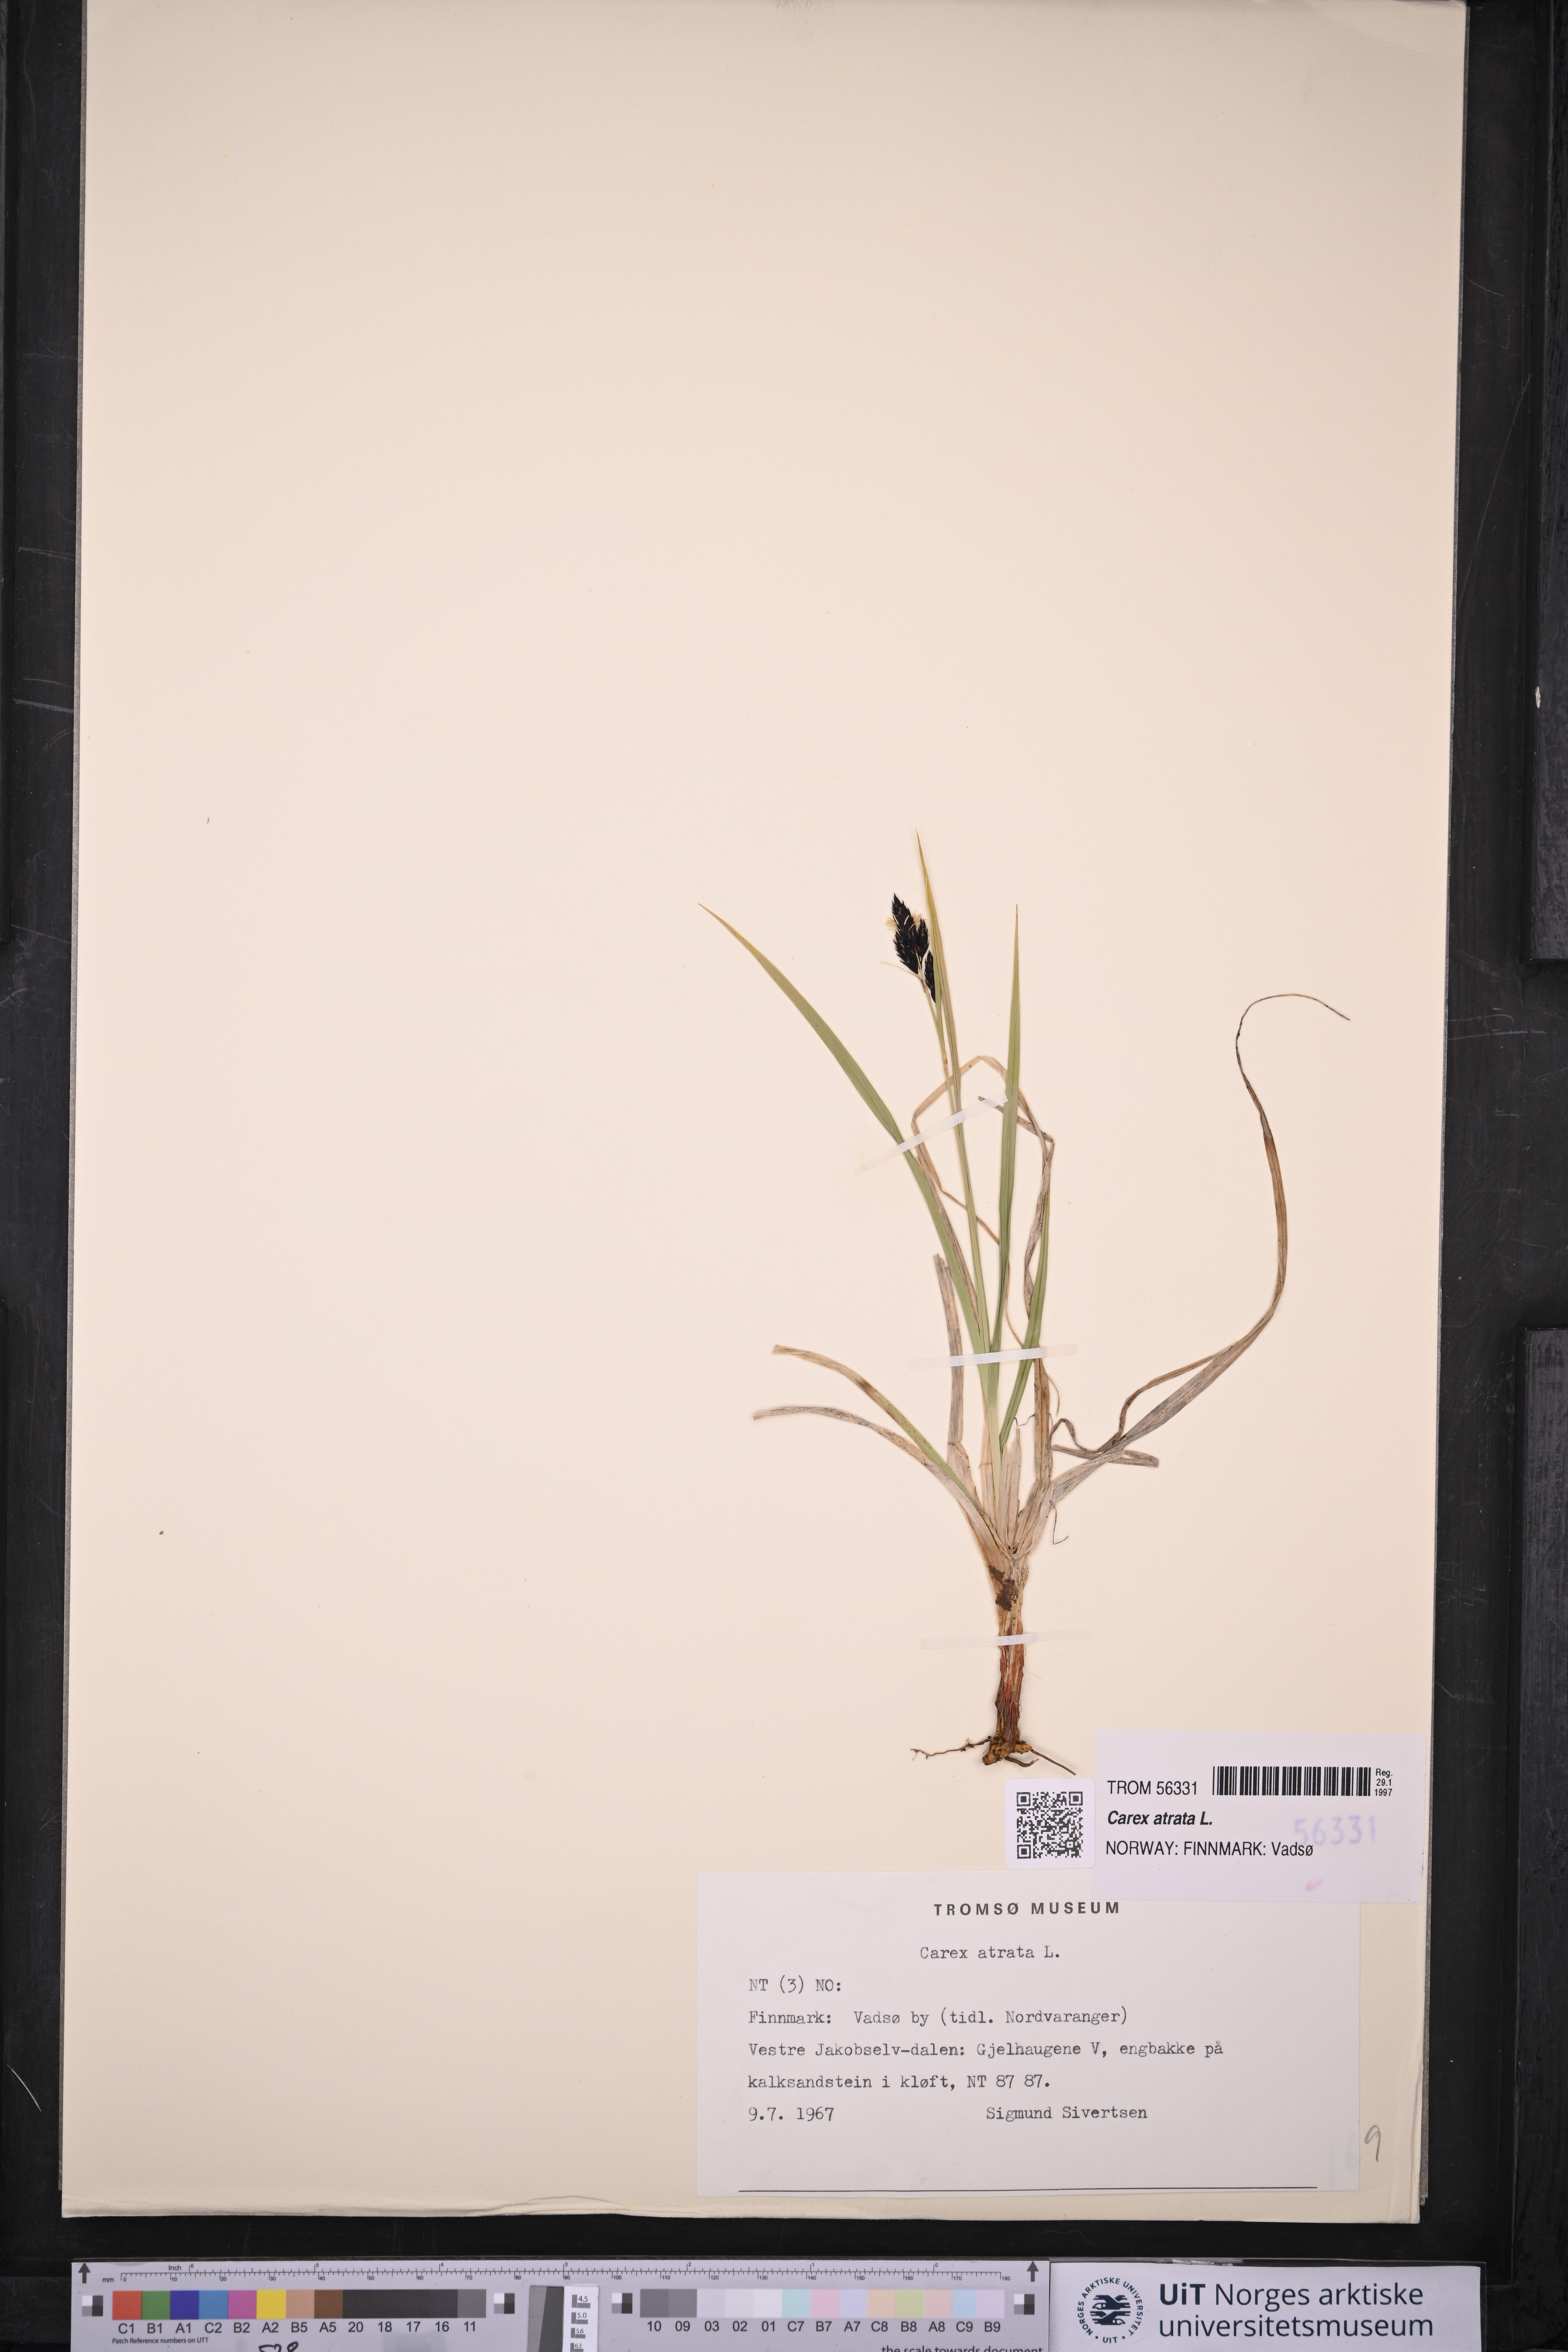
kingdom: Plantae
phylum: Tracheophyta
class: Liliopsida
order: Poales
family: Cyperaceae
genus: Carex
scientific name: Carex atrata
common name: Black alpine sedge
